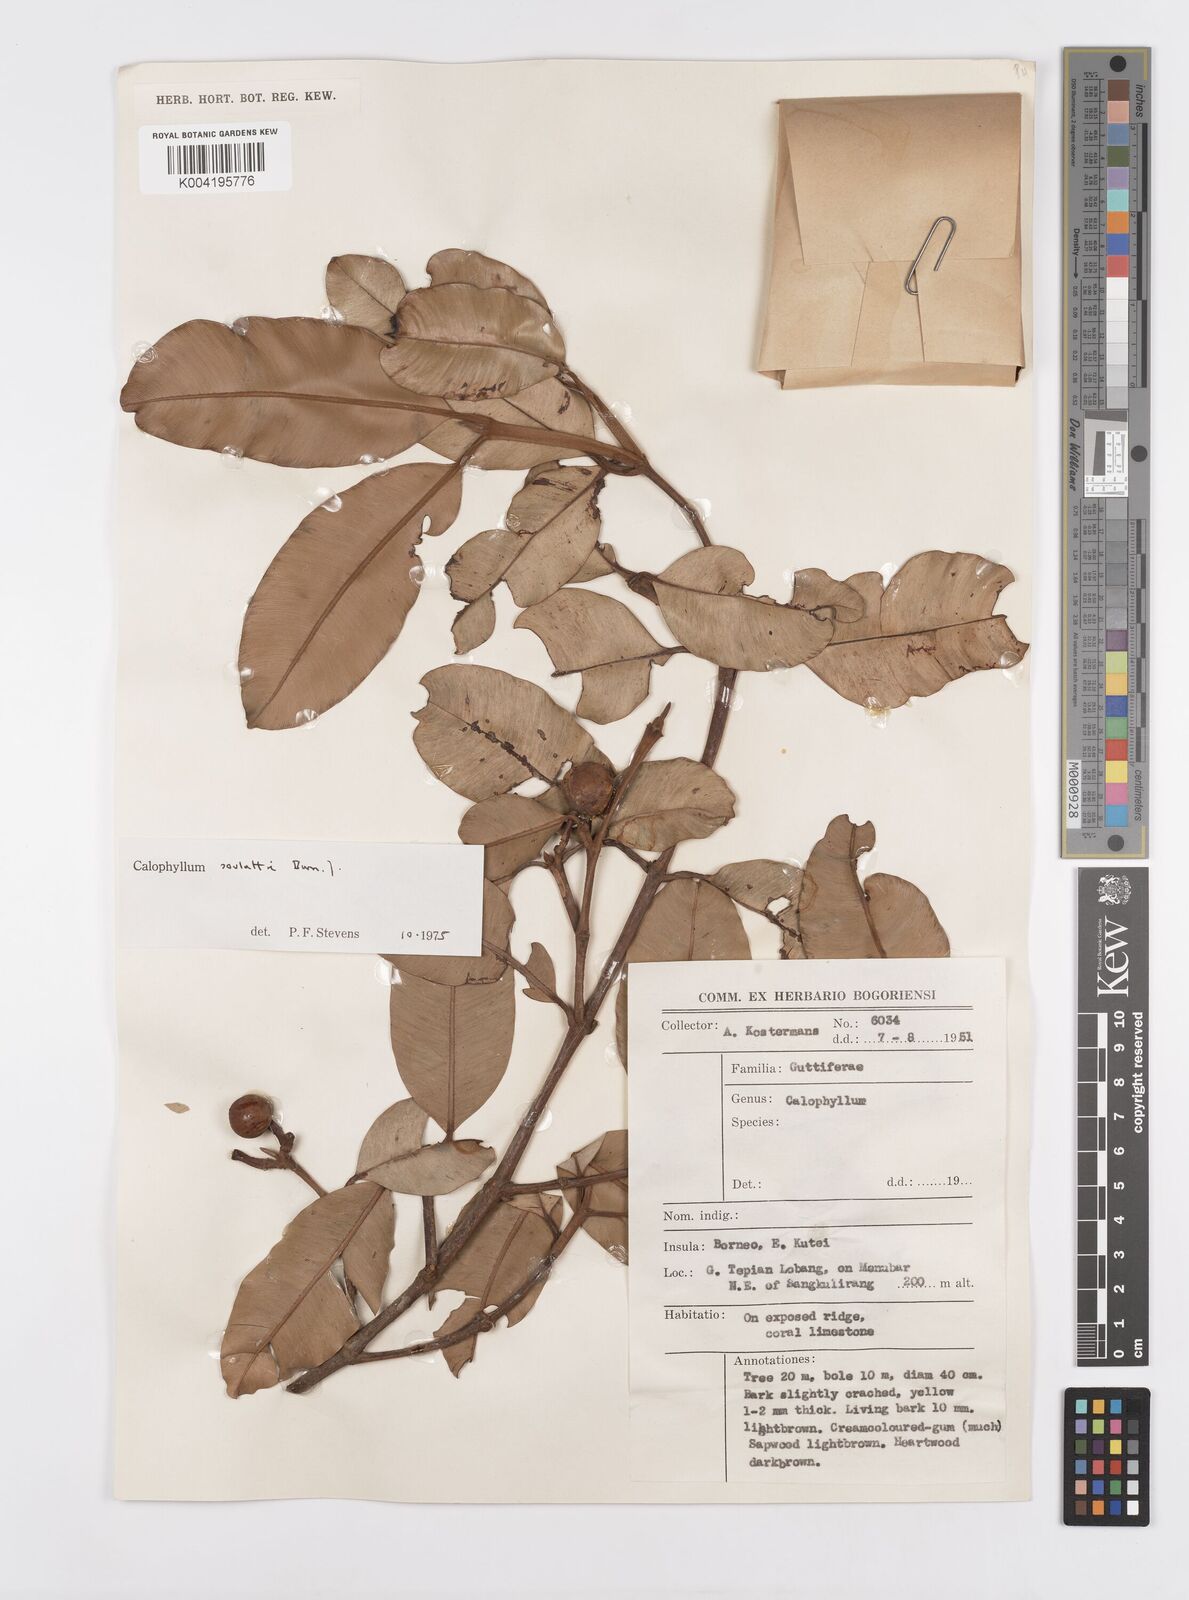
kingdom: Plantae
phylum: Tracheophyta
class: Magnoliopsida
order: Malpighiales
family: Calophyllaceae
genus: Calophyllum
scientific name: Calophyllum soulattri
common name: Bitangoor boonot
